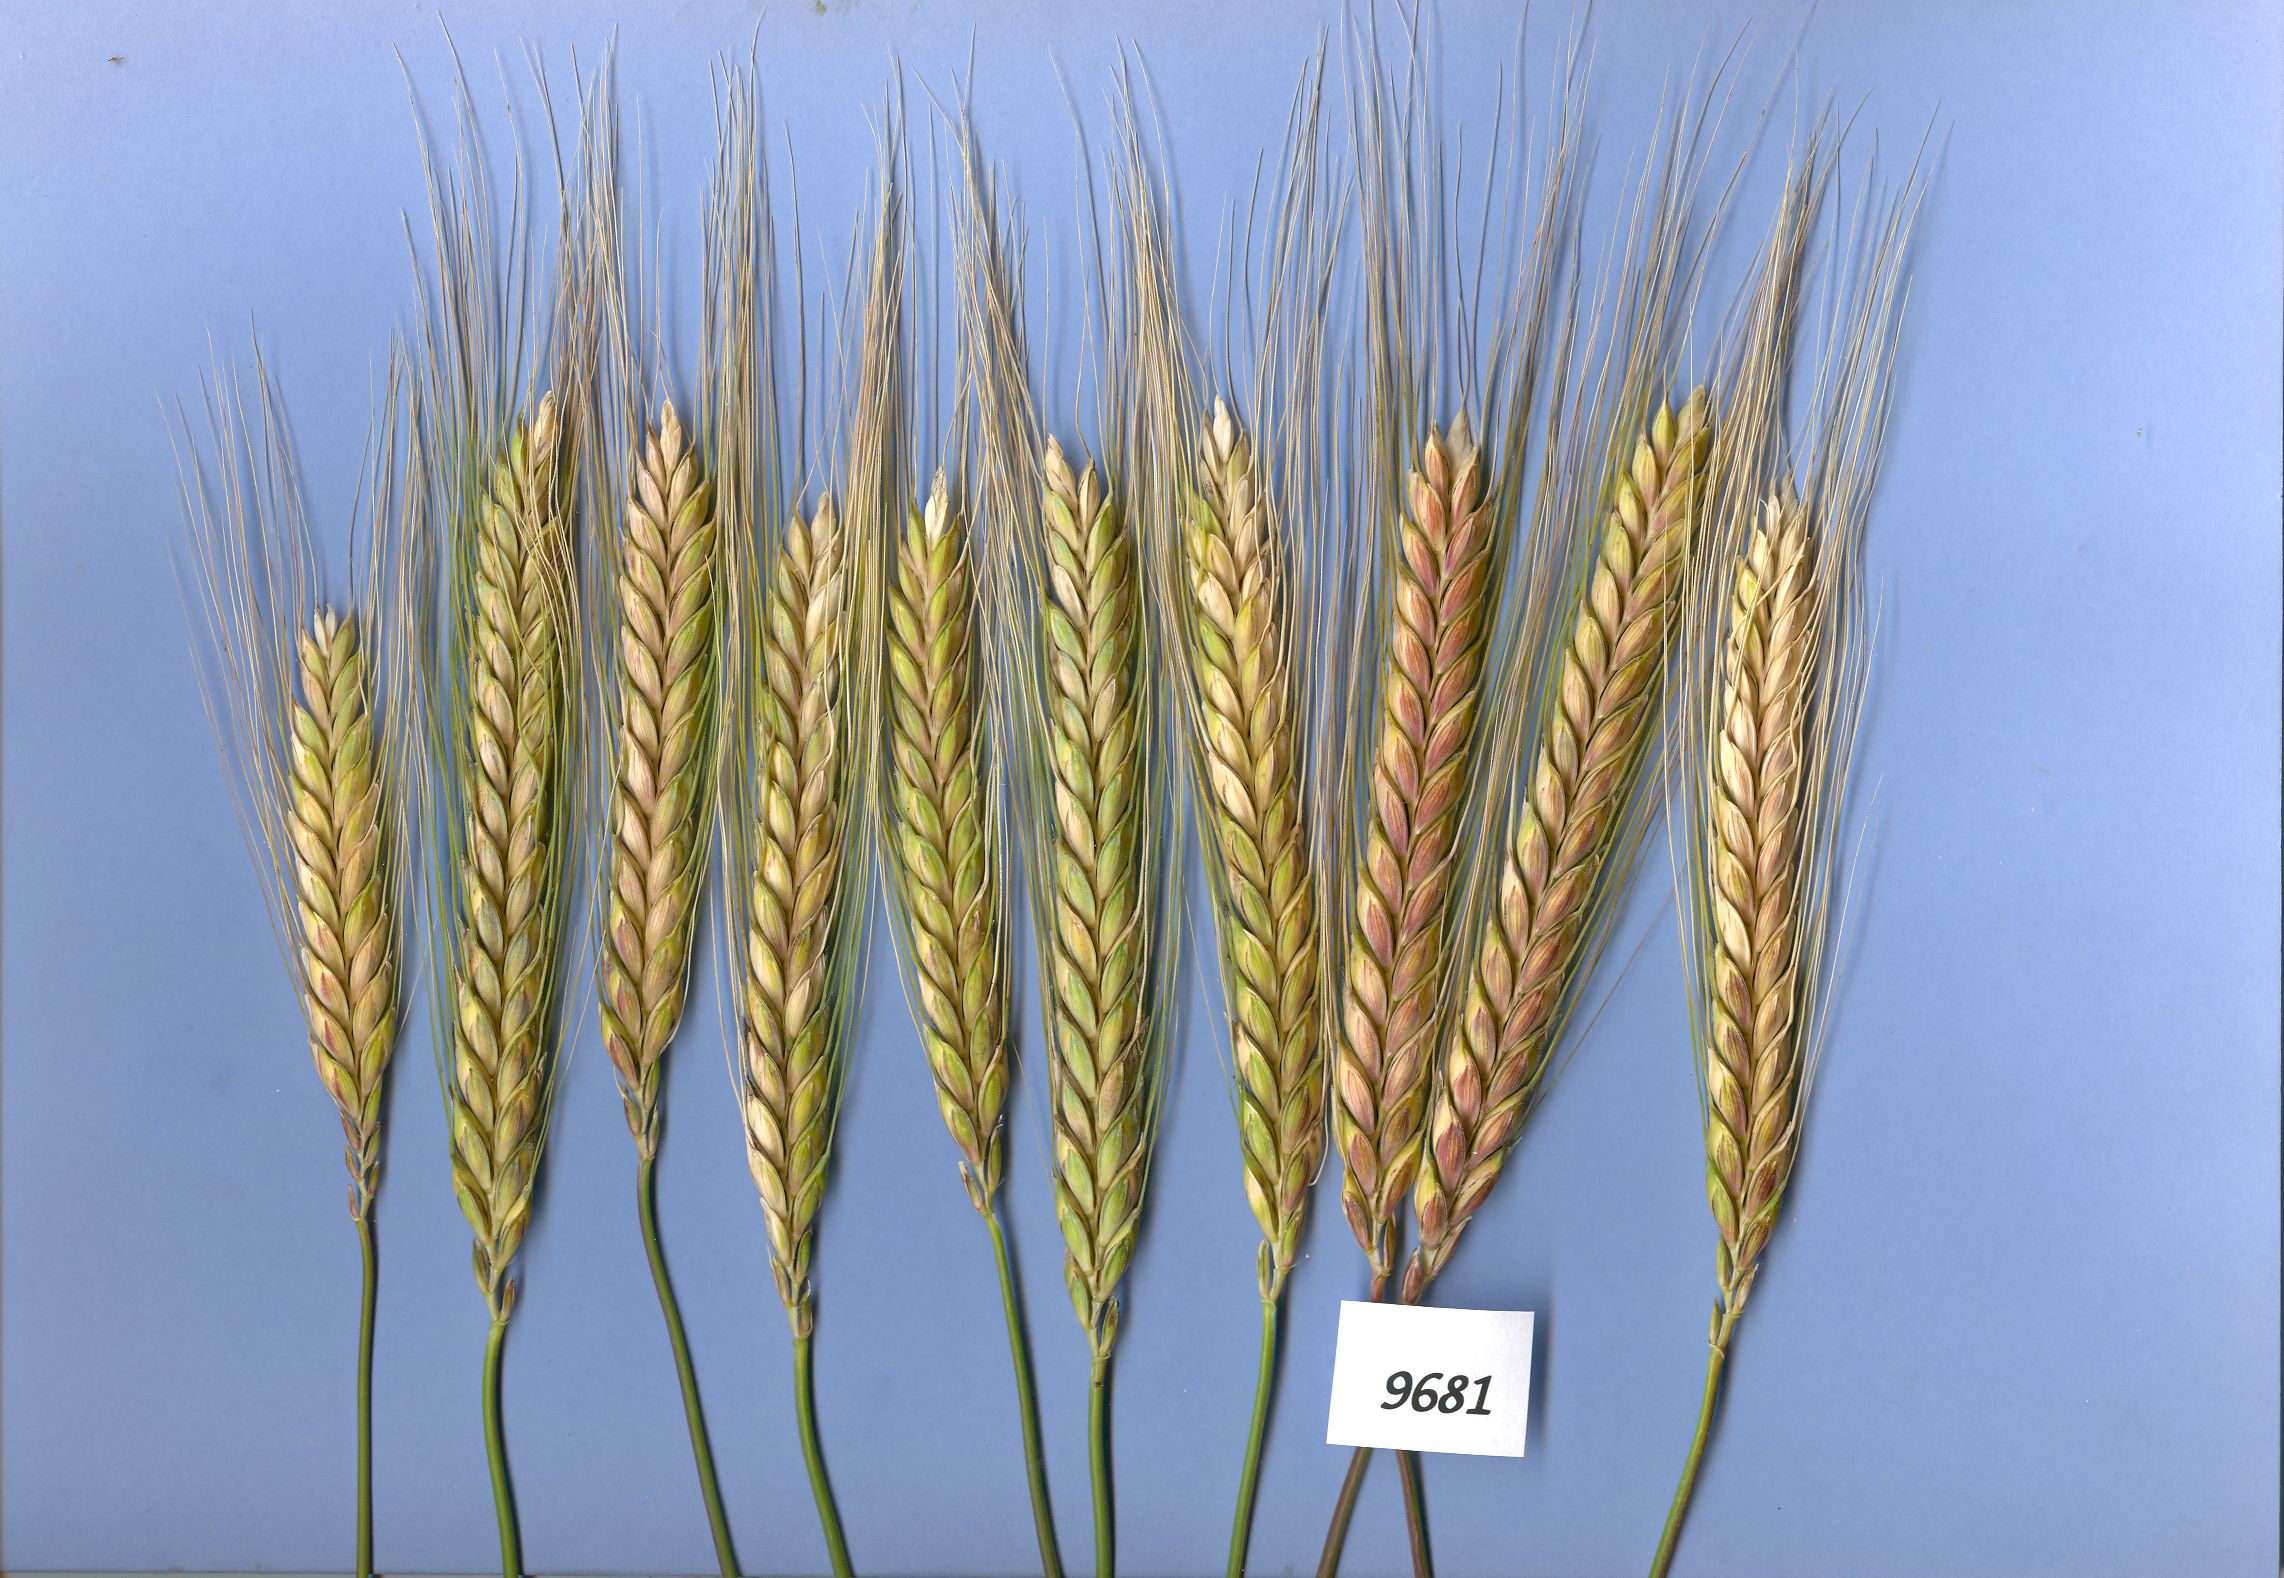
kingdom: Plantae
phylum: Tracheophyta
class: Liliopsida
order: Poales
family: Poaceae
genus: Triticum
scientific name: Triticum turgidum
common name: Rivet wheat
